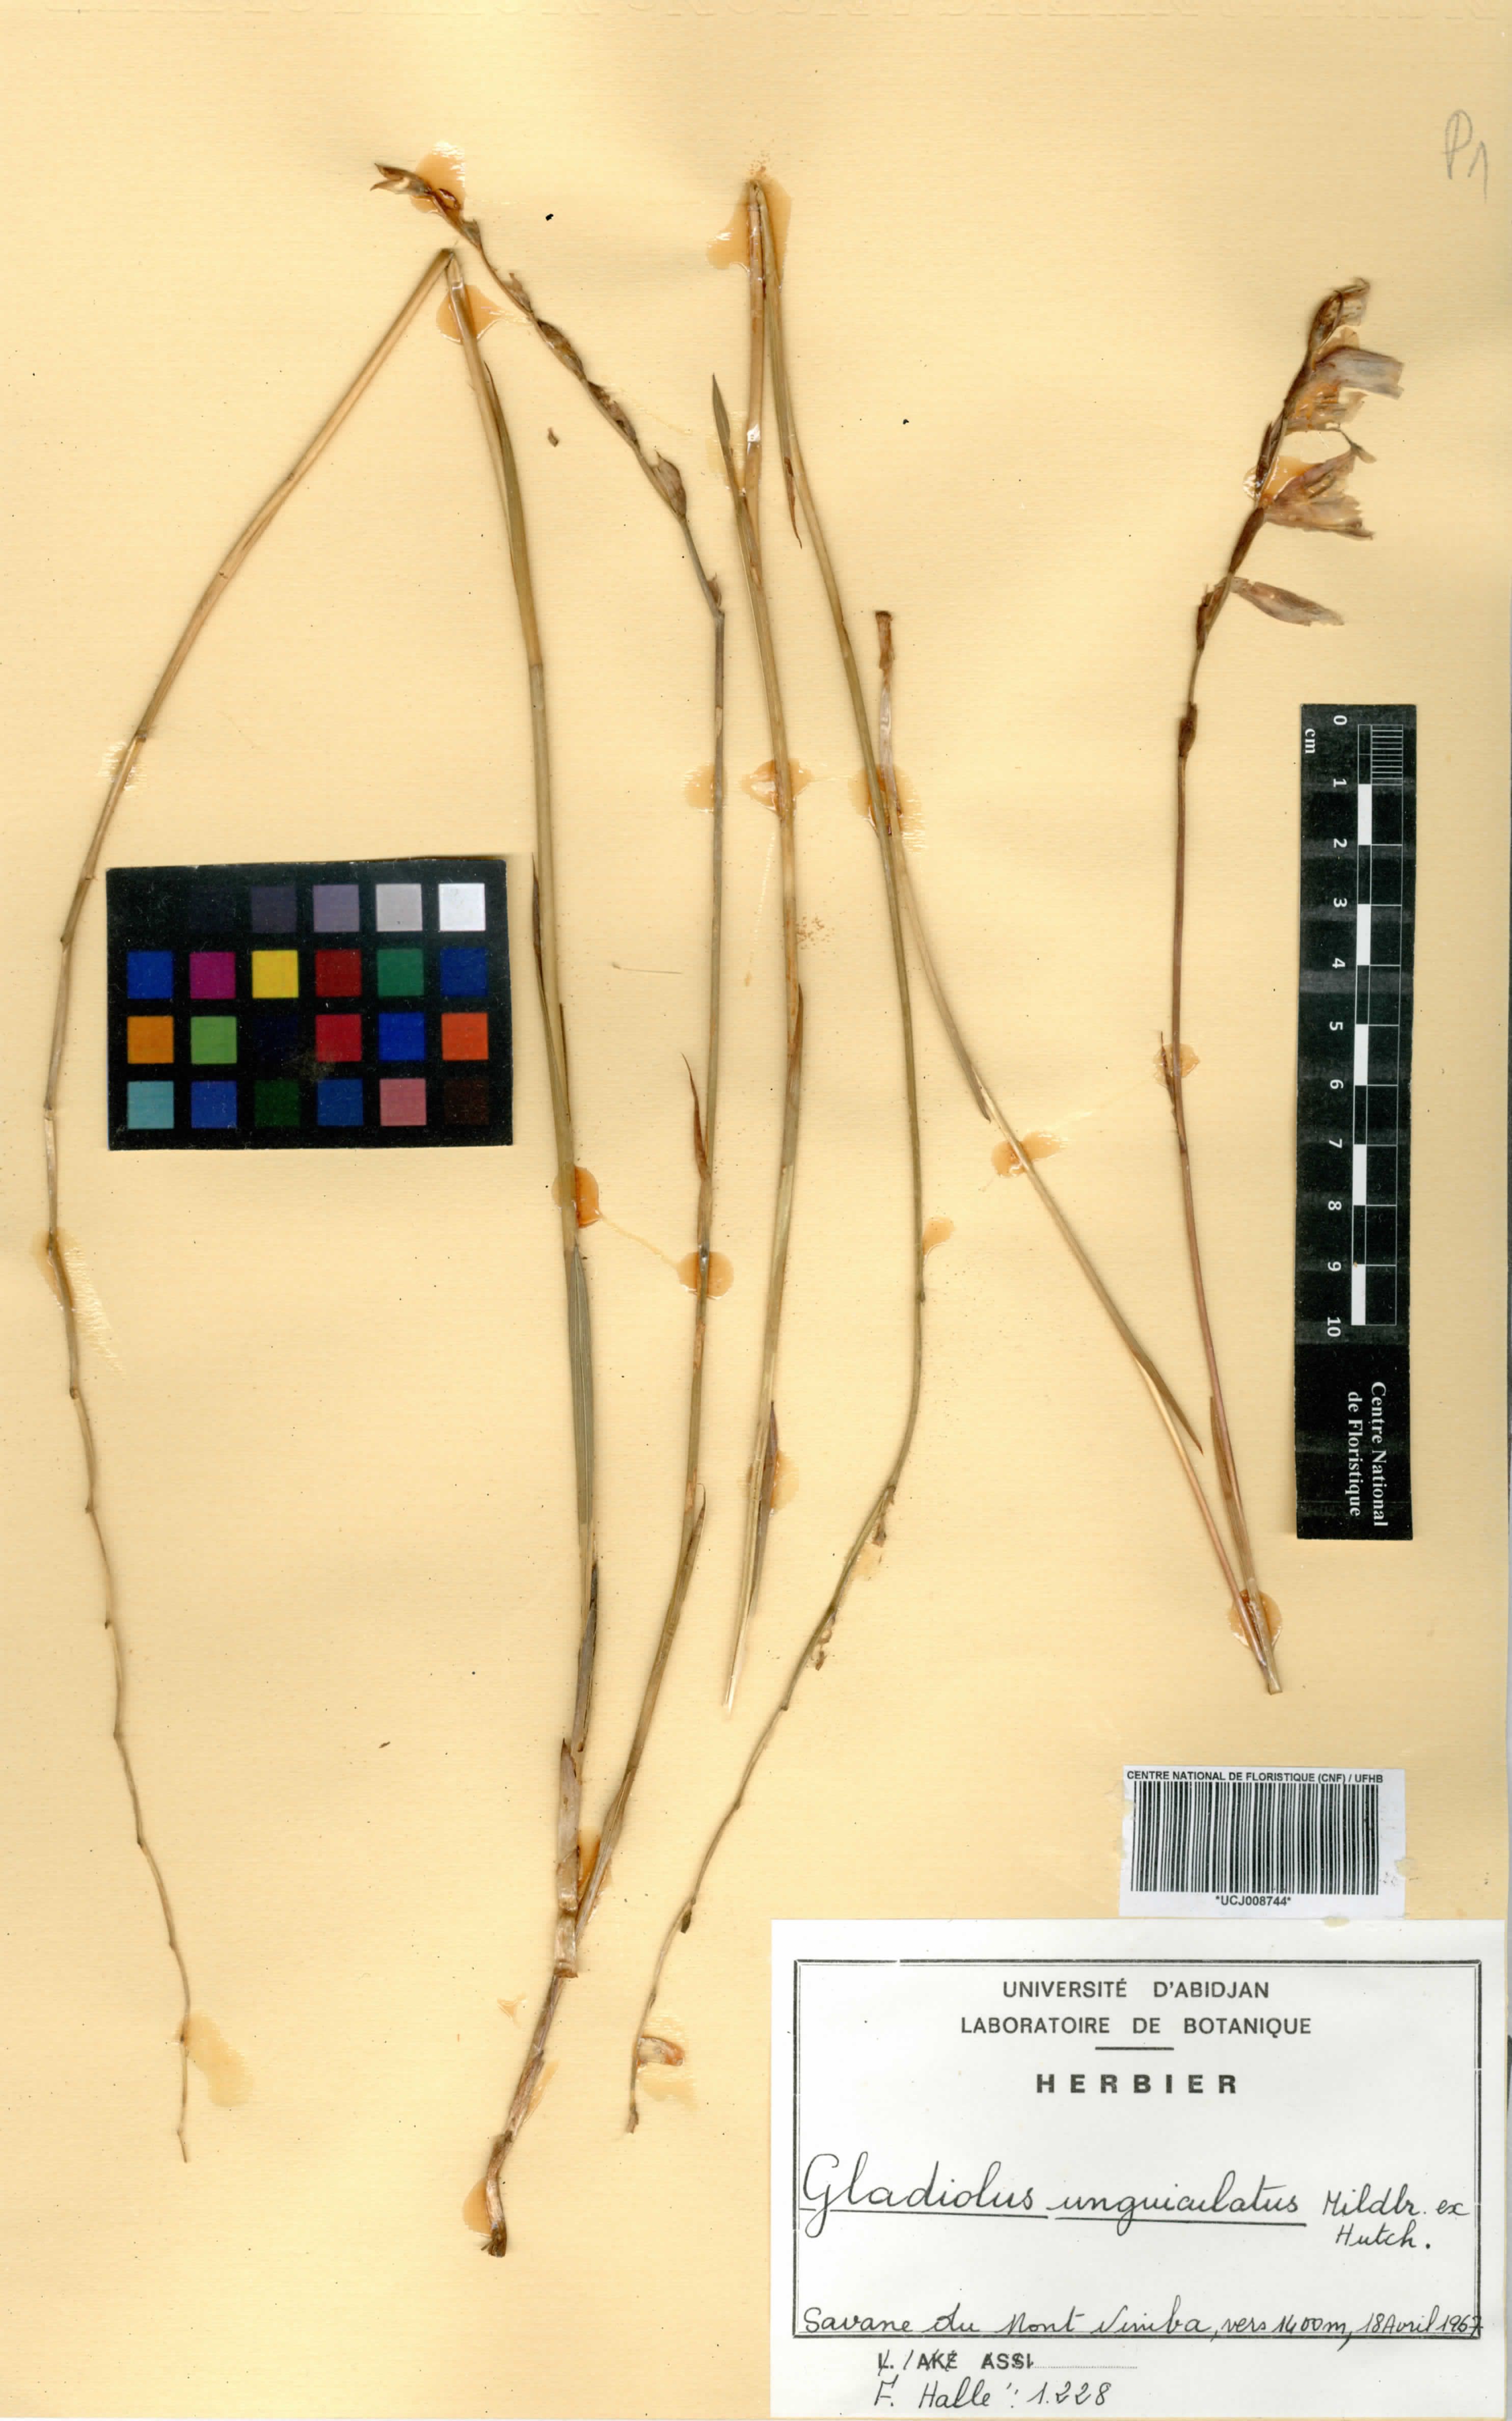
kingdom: Plantae
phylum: Tracheophyta
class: Liliopsida
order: Asparagales
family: Iridaceae
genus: Gladiolus
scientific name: Gladiolus unguiculatus
